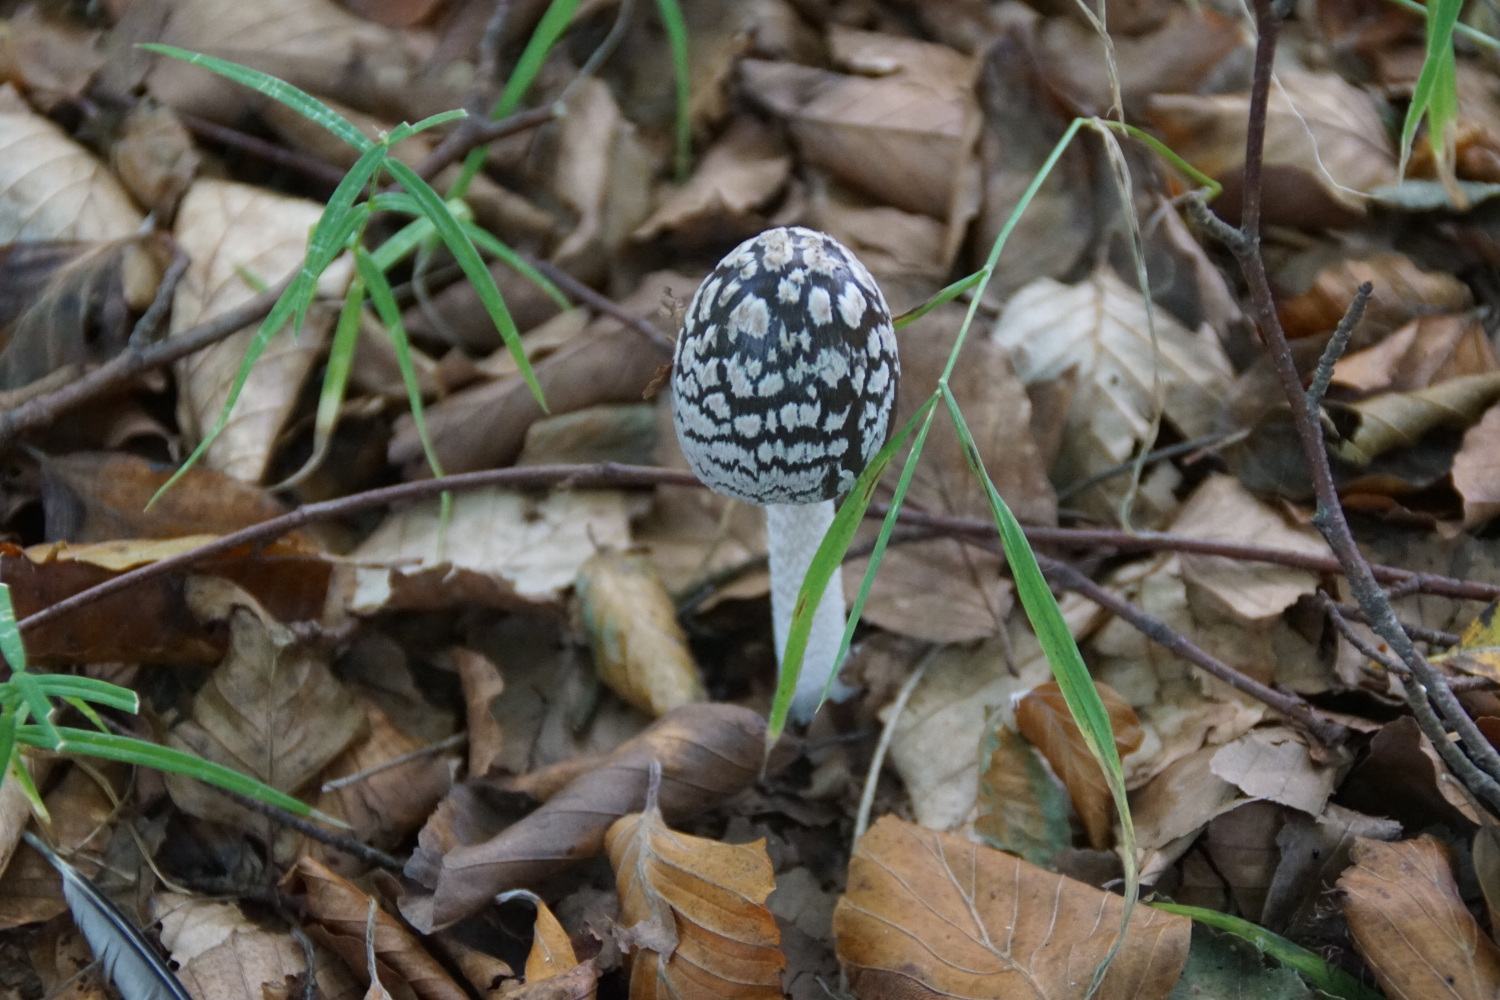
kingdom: Fungi
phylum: Basidiomycota
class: Agaricomycetes
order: Agaricales
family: Psathyrellaceae
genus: Coprinopsis
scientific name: Coprinopsis picacea
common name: skade-blækhat
